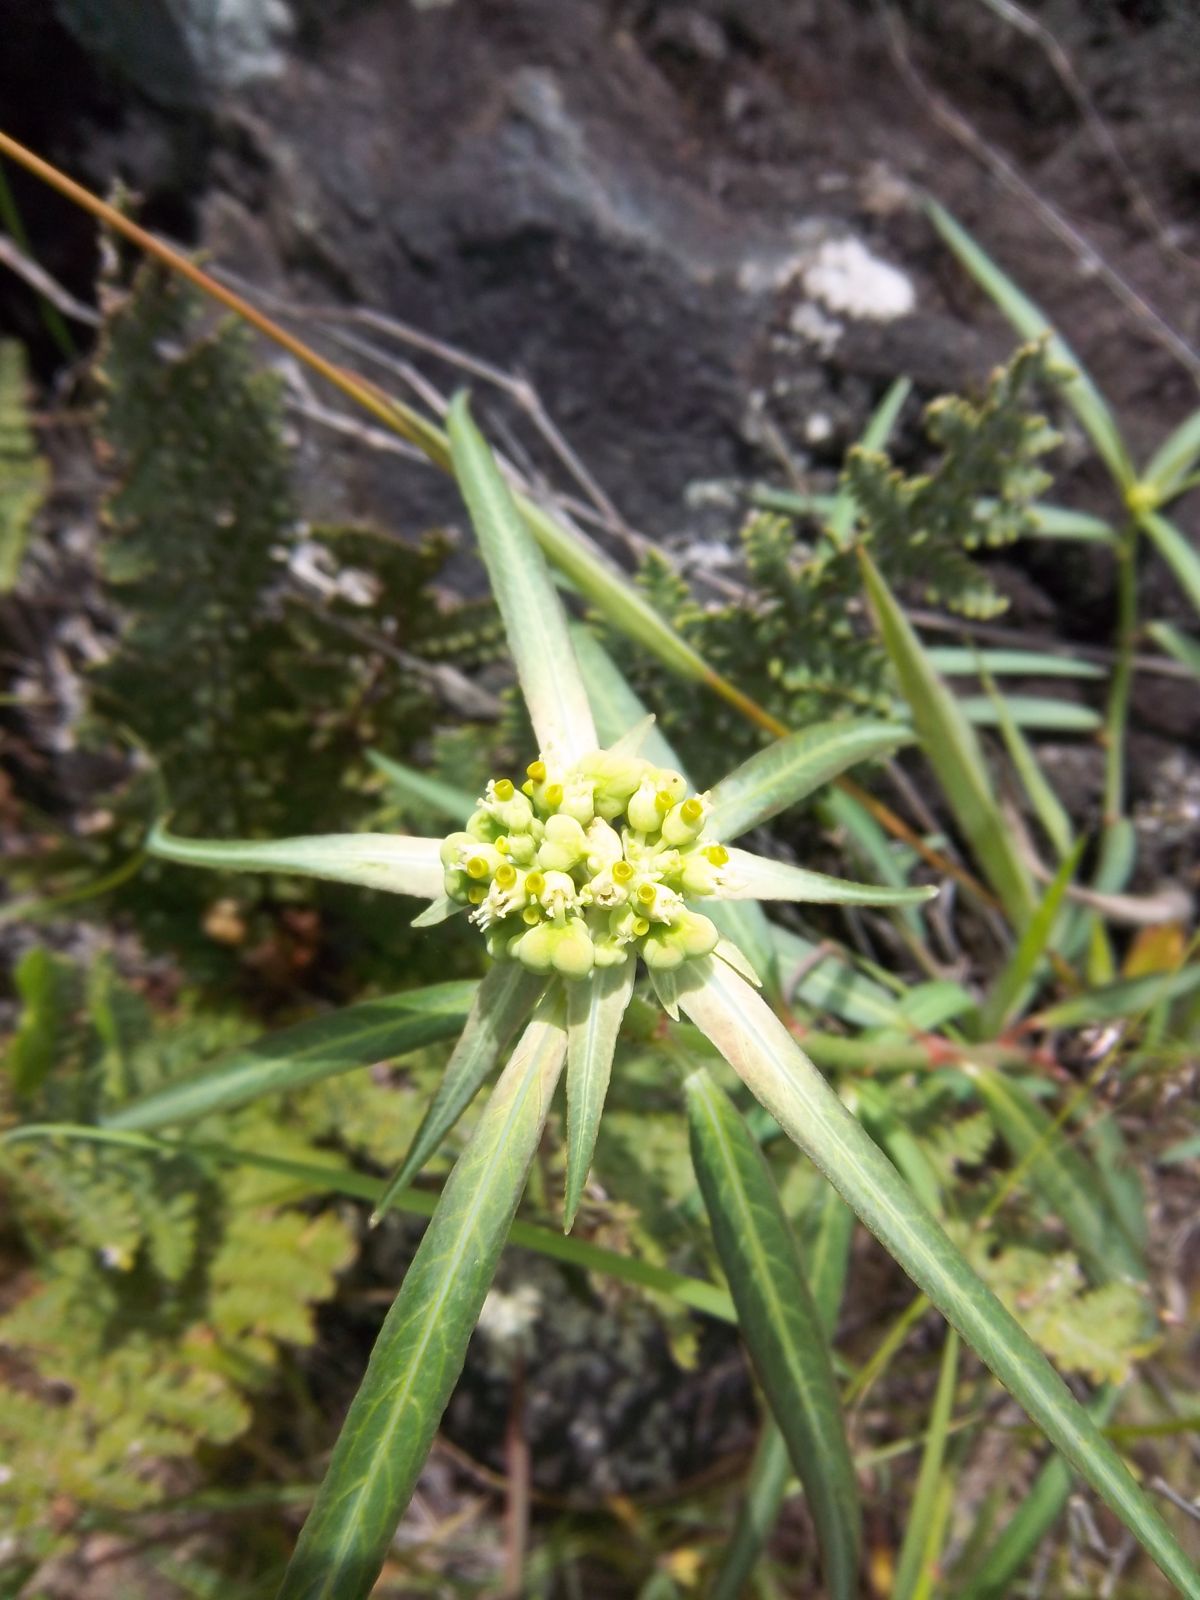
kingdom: Plantae
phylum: Tracheophyta
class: Magnoliopsida
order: Malpighiales
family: Euphorbiaceae
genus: Euphorbia
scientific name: Euphorbia heterophylla
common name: Mexican fireplant
